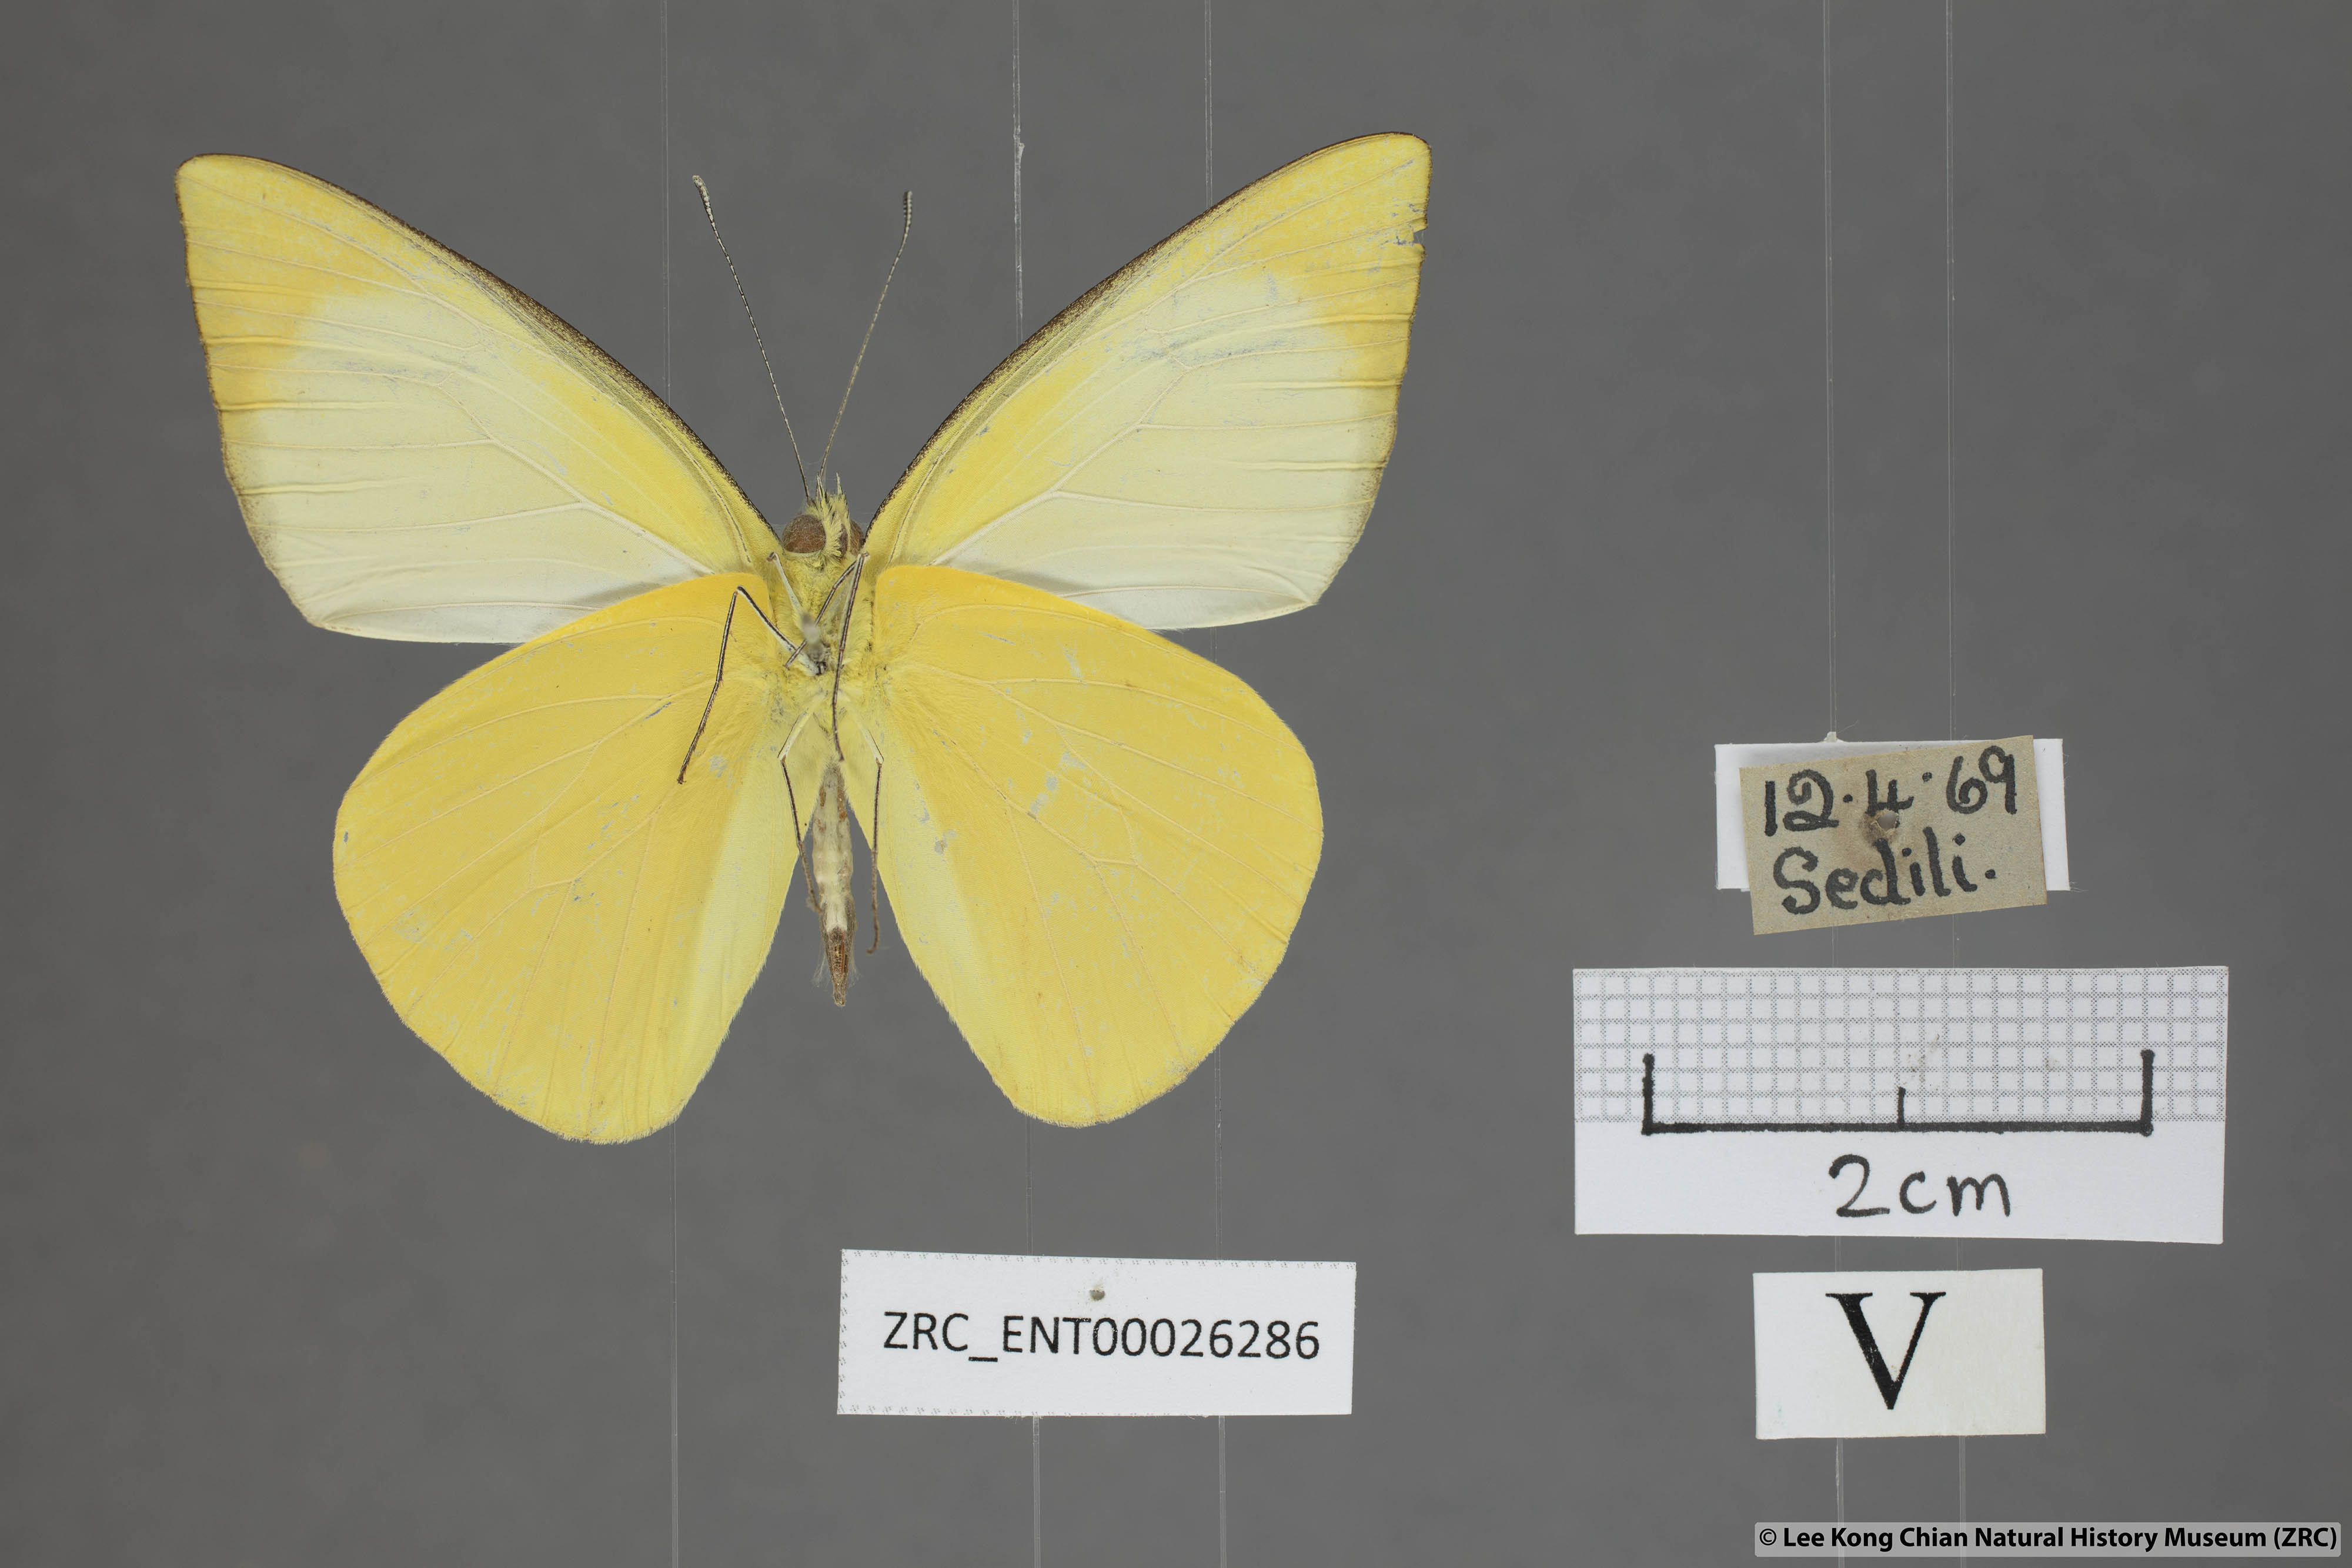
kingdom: Animalia
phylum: Arthropoda
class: Insecta
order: Lepidoptera
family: Pieridae
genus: Saletara
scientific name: Saletara liberia
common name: Pointed albatross
